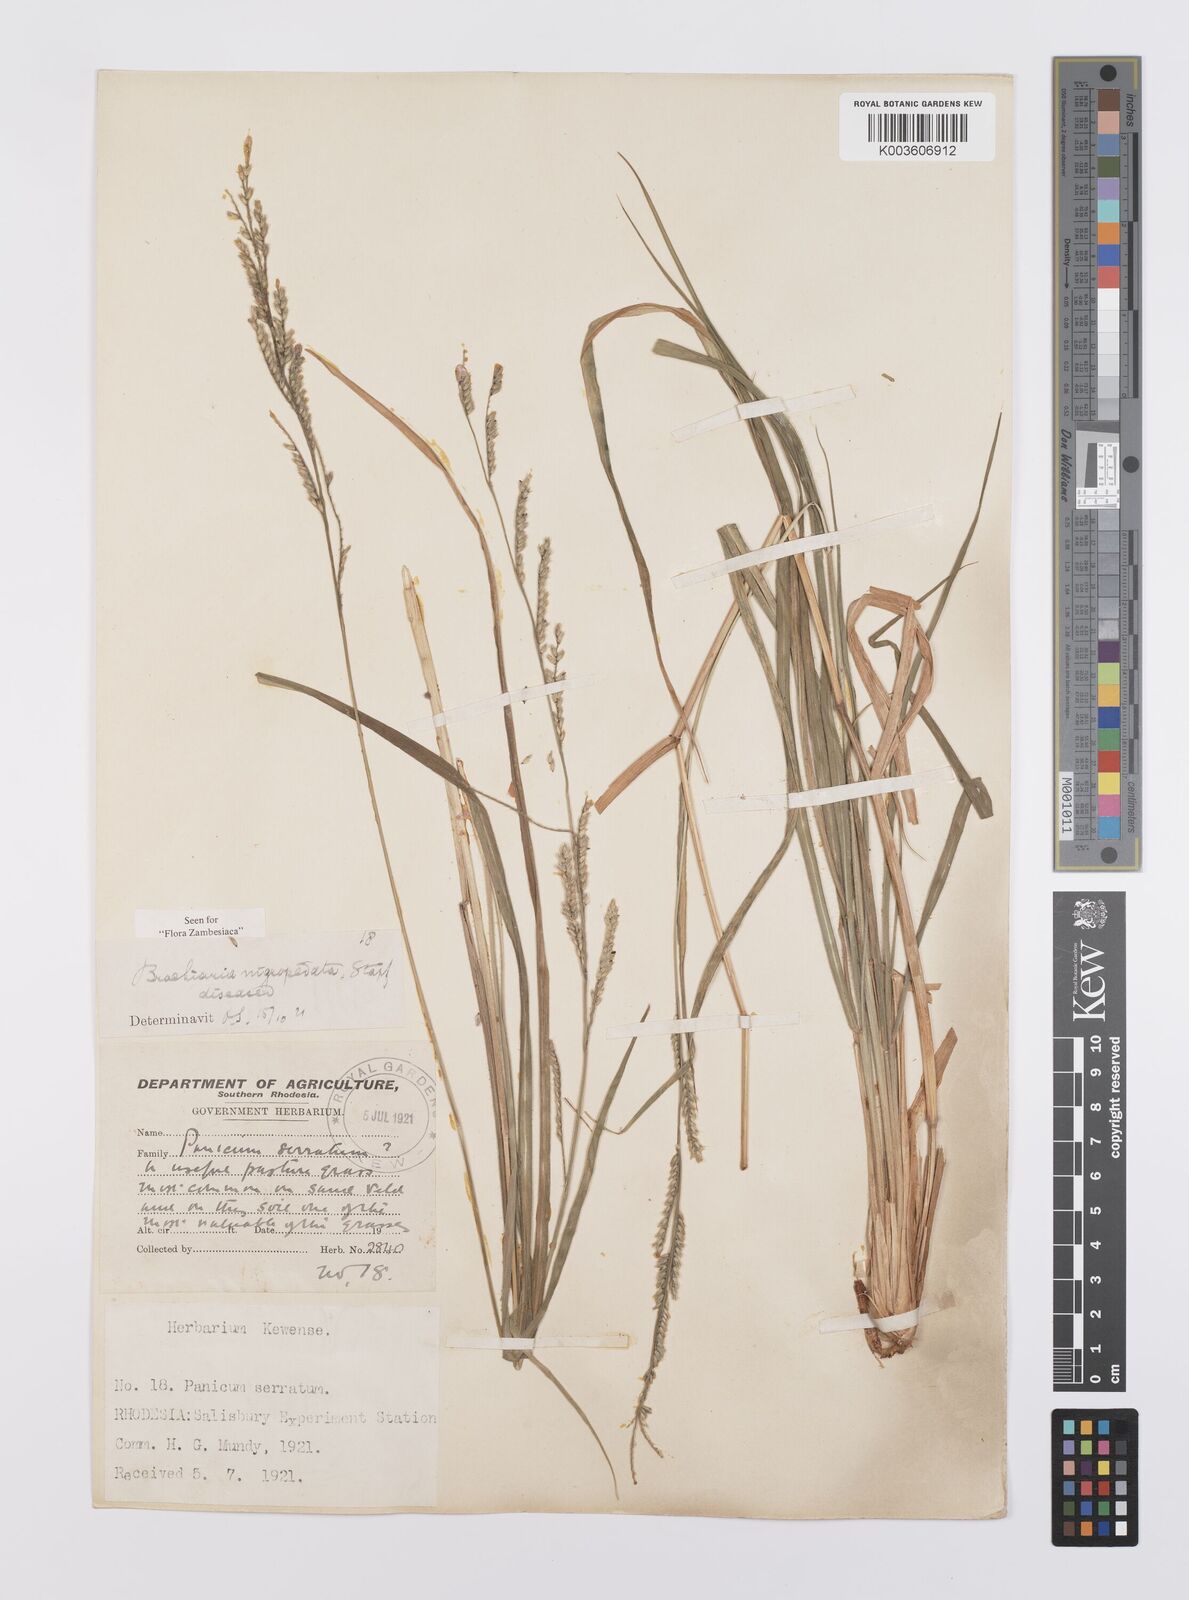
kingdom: Plantae
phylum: Tracheophyta
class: Liliopsida
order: Poales
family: Poaceae
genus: Urochloa
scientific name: Urochloa nigropedata
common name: Spotted signal grass
